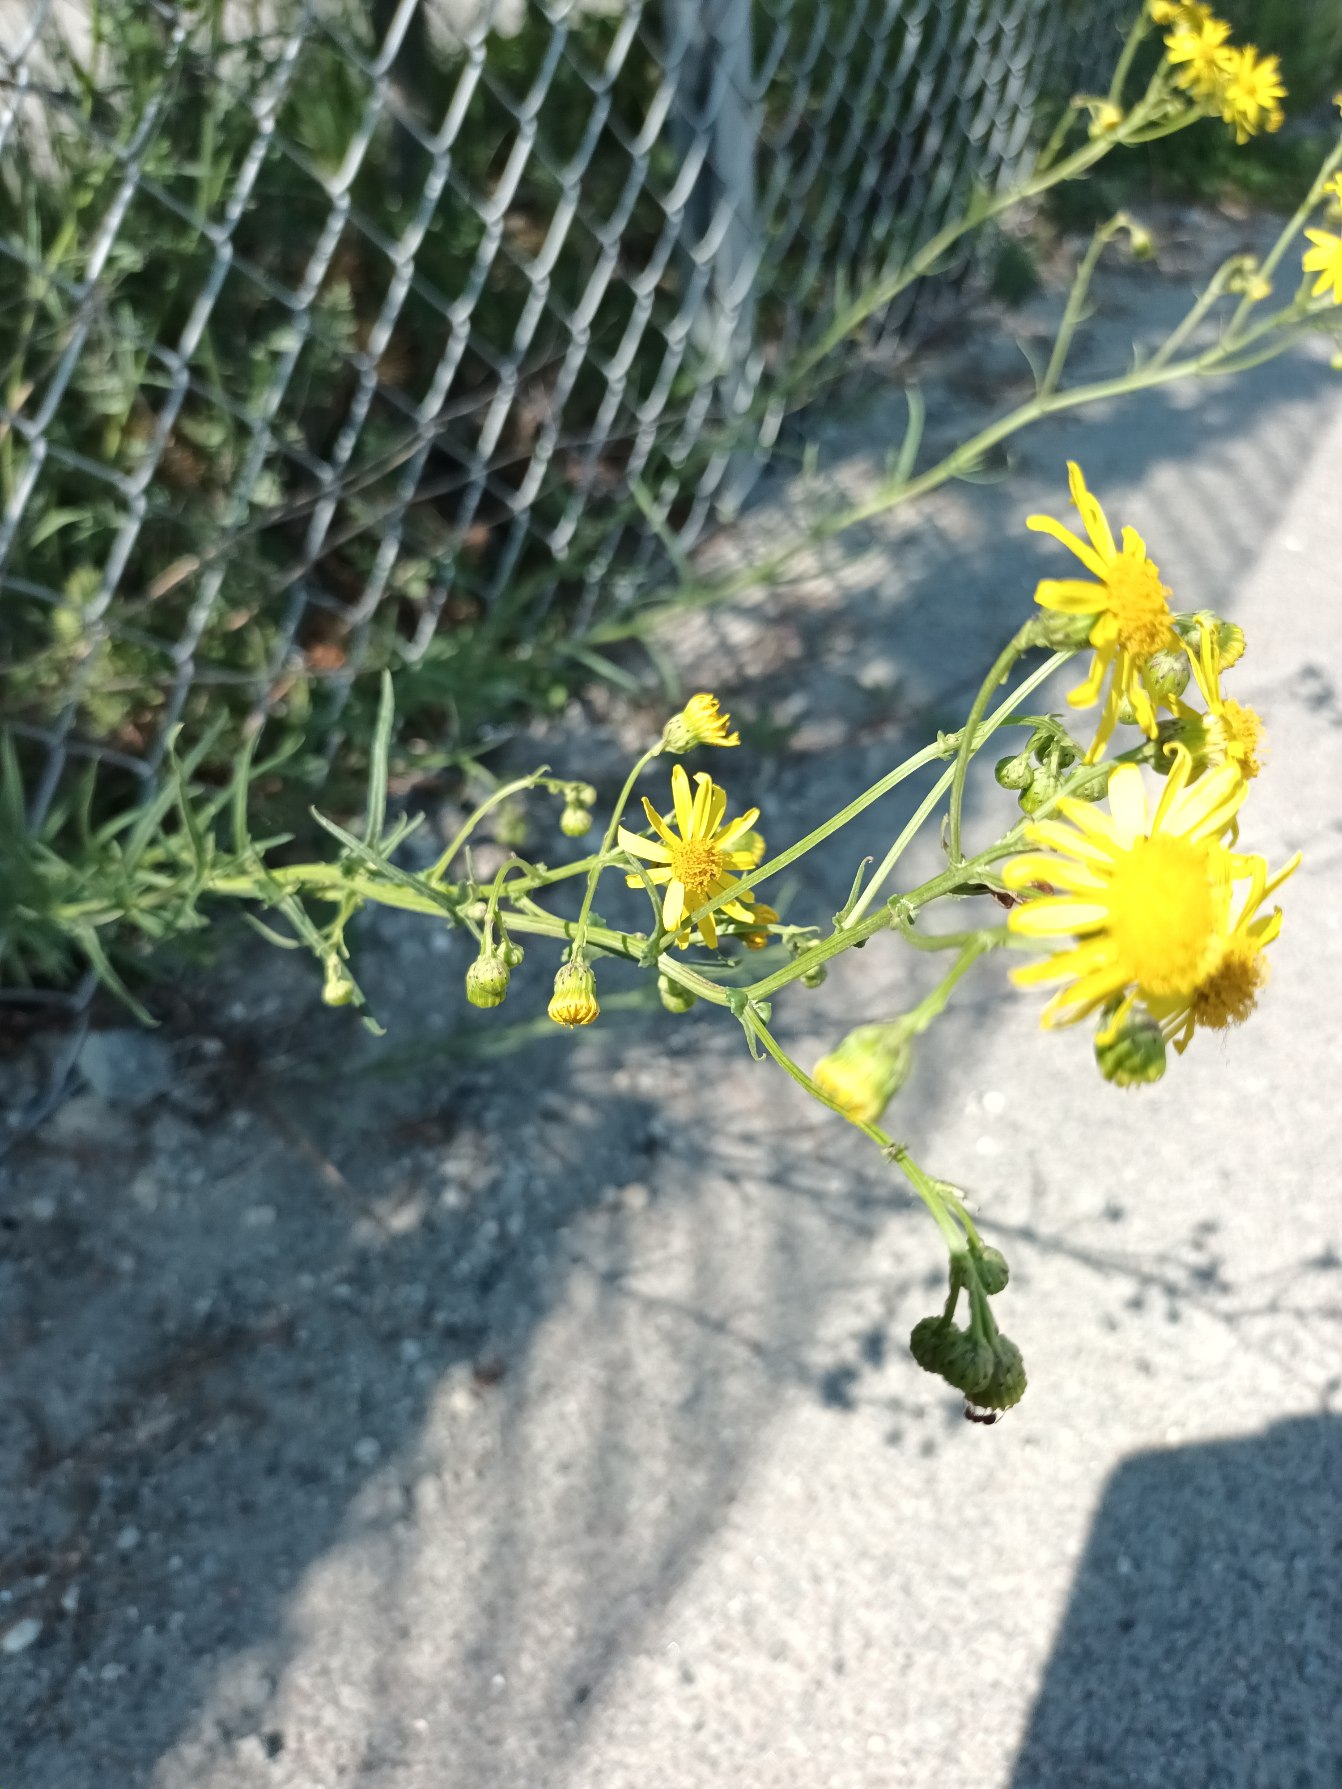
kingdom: Plantae
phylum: Tracheophyta
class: Magnoliopsida
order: Asterales
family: Asteraceae
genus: Senecio
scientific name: Senecio inaequidens
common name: Smalbladet brandbæger
